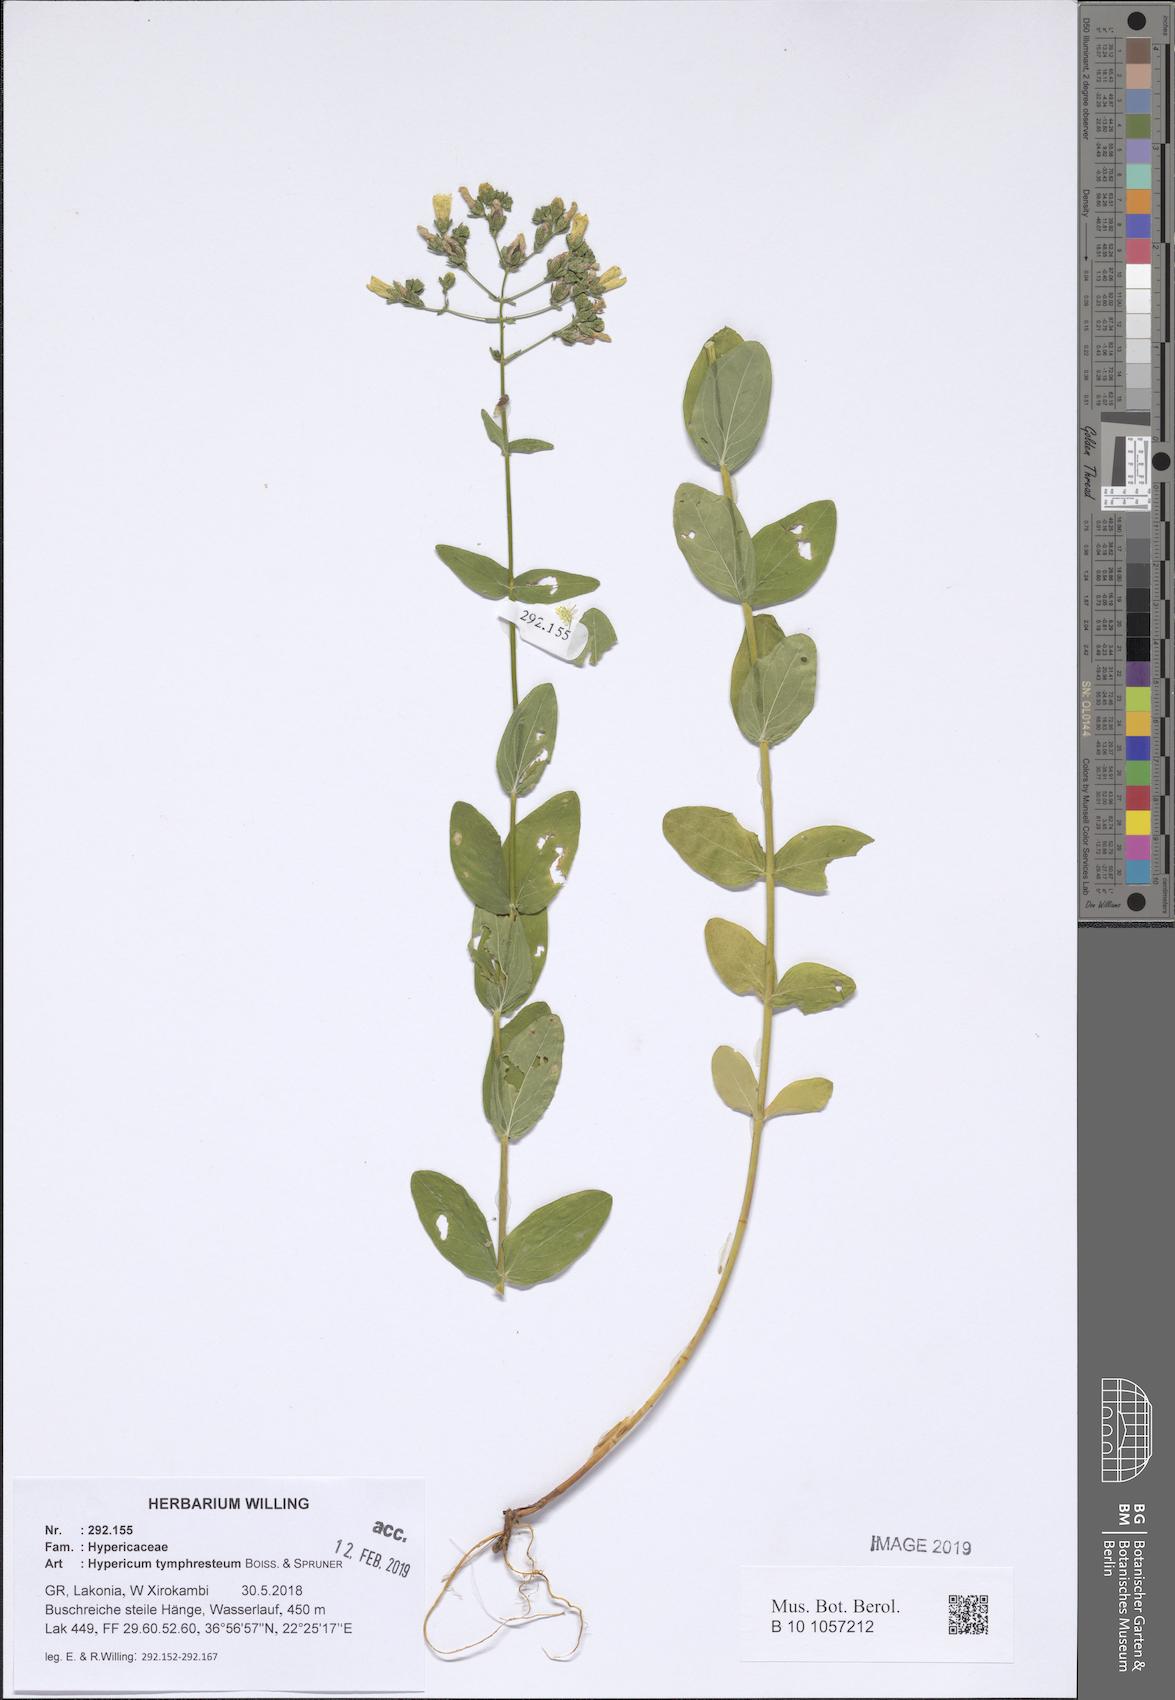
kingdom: Plantae
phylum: Tracheophyta
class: Magnoliopsida
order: Malpighiales
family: Hypericaceae
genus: Hypericum
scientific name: Hypericum atomarium
